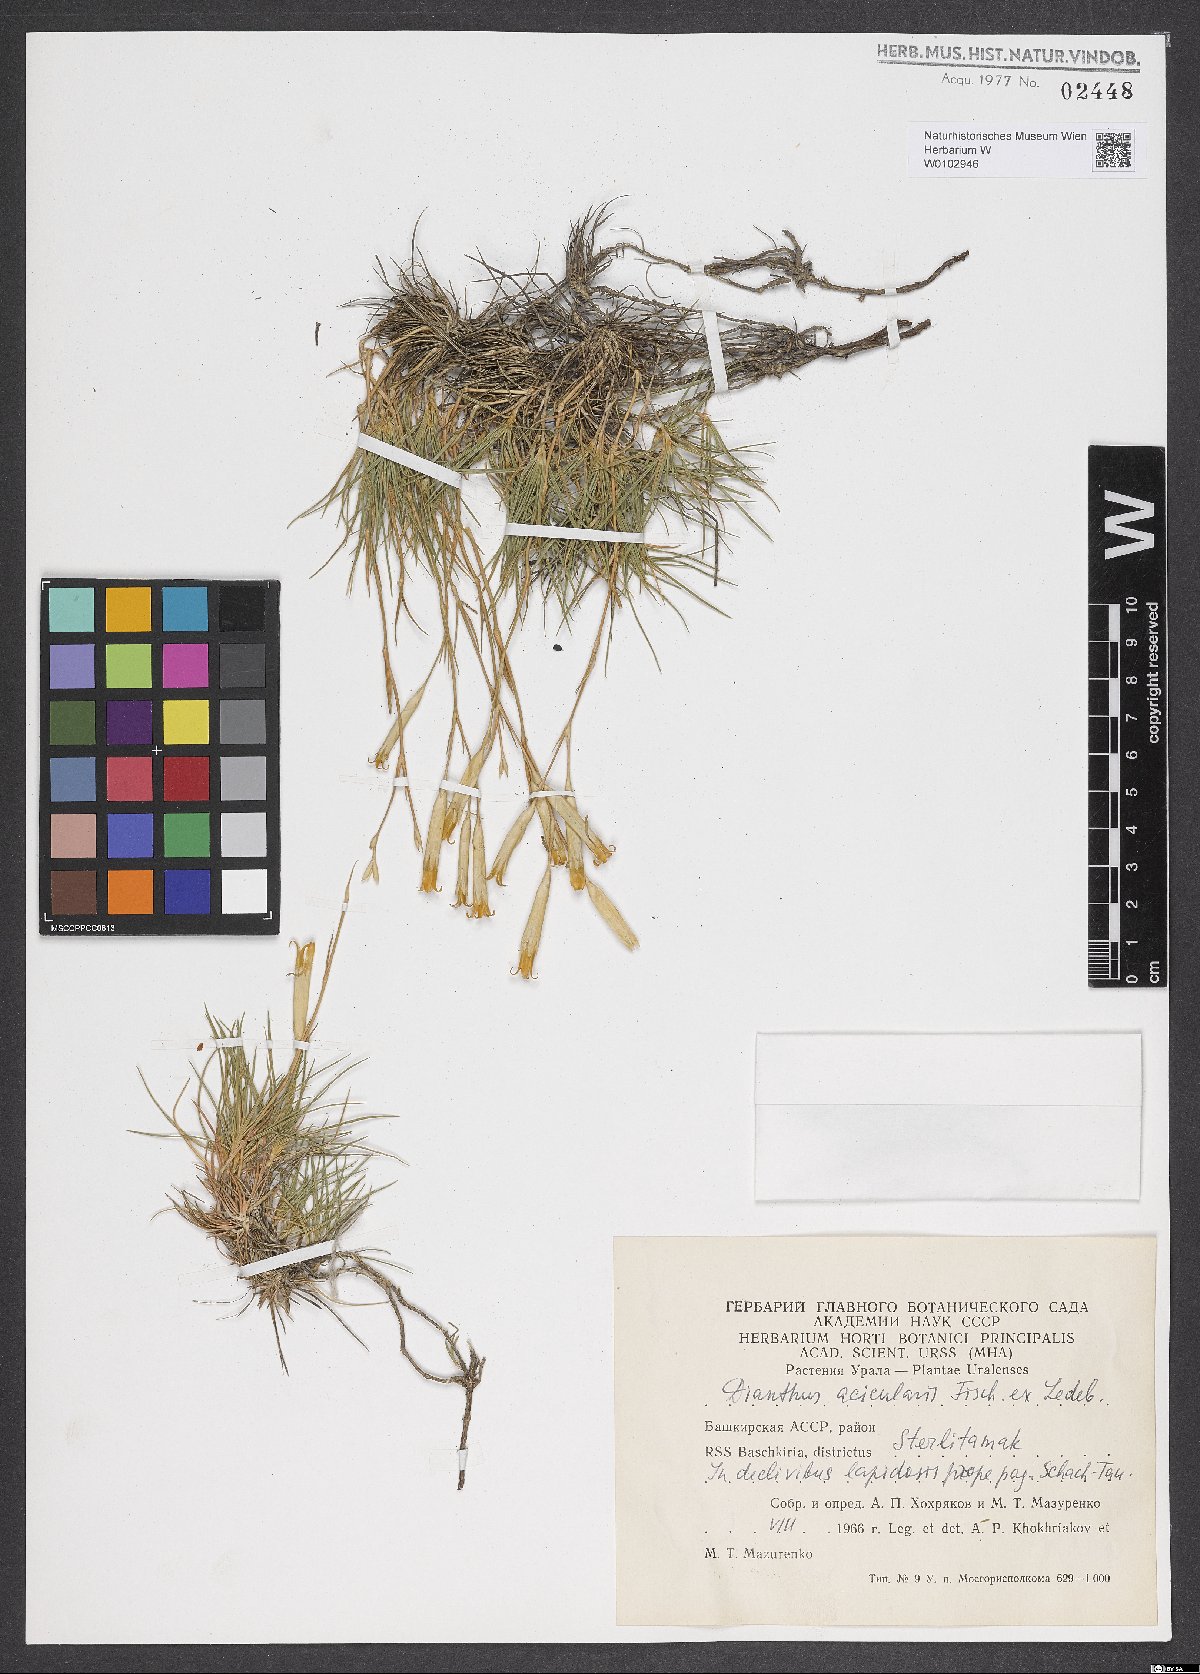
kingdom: Plantae
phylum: Tracheophyta
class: Magnoliopsida
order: Caryophyllales
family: Caryophyllaceae
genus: Dianthus
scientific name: Dianthus acicularis
